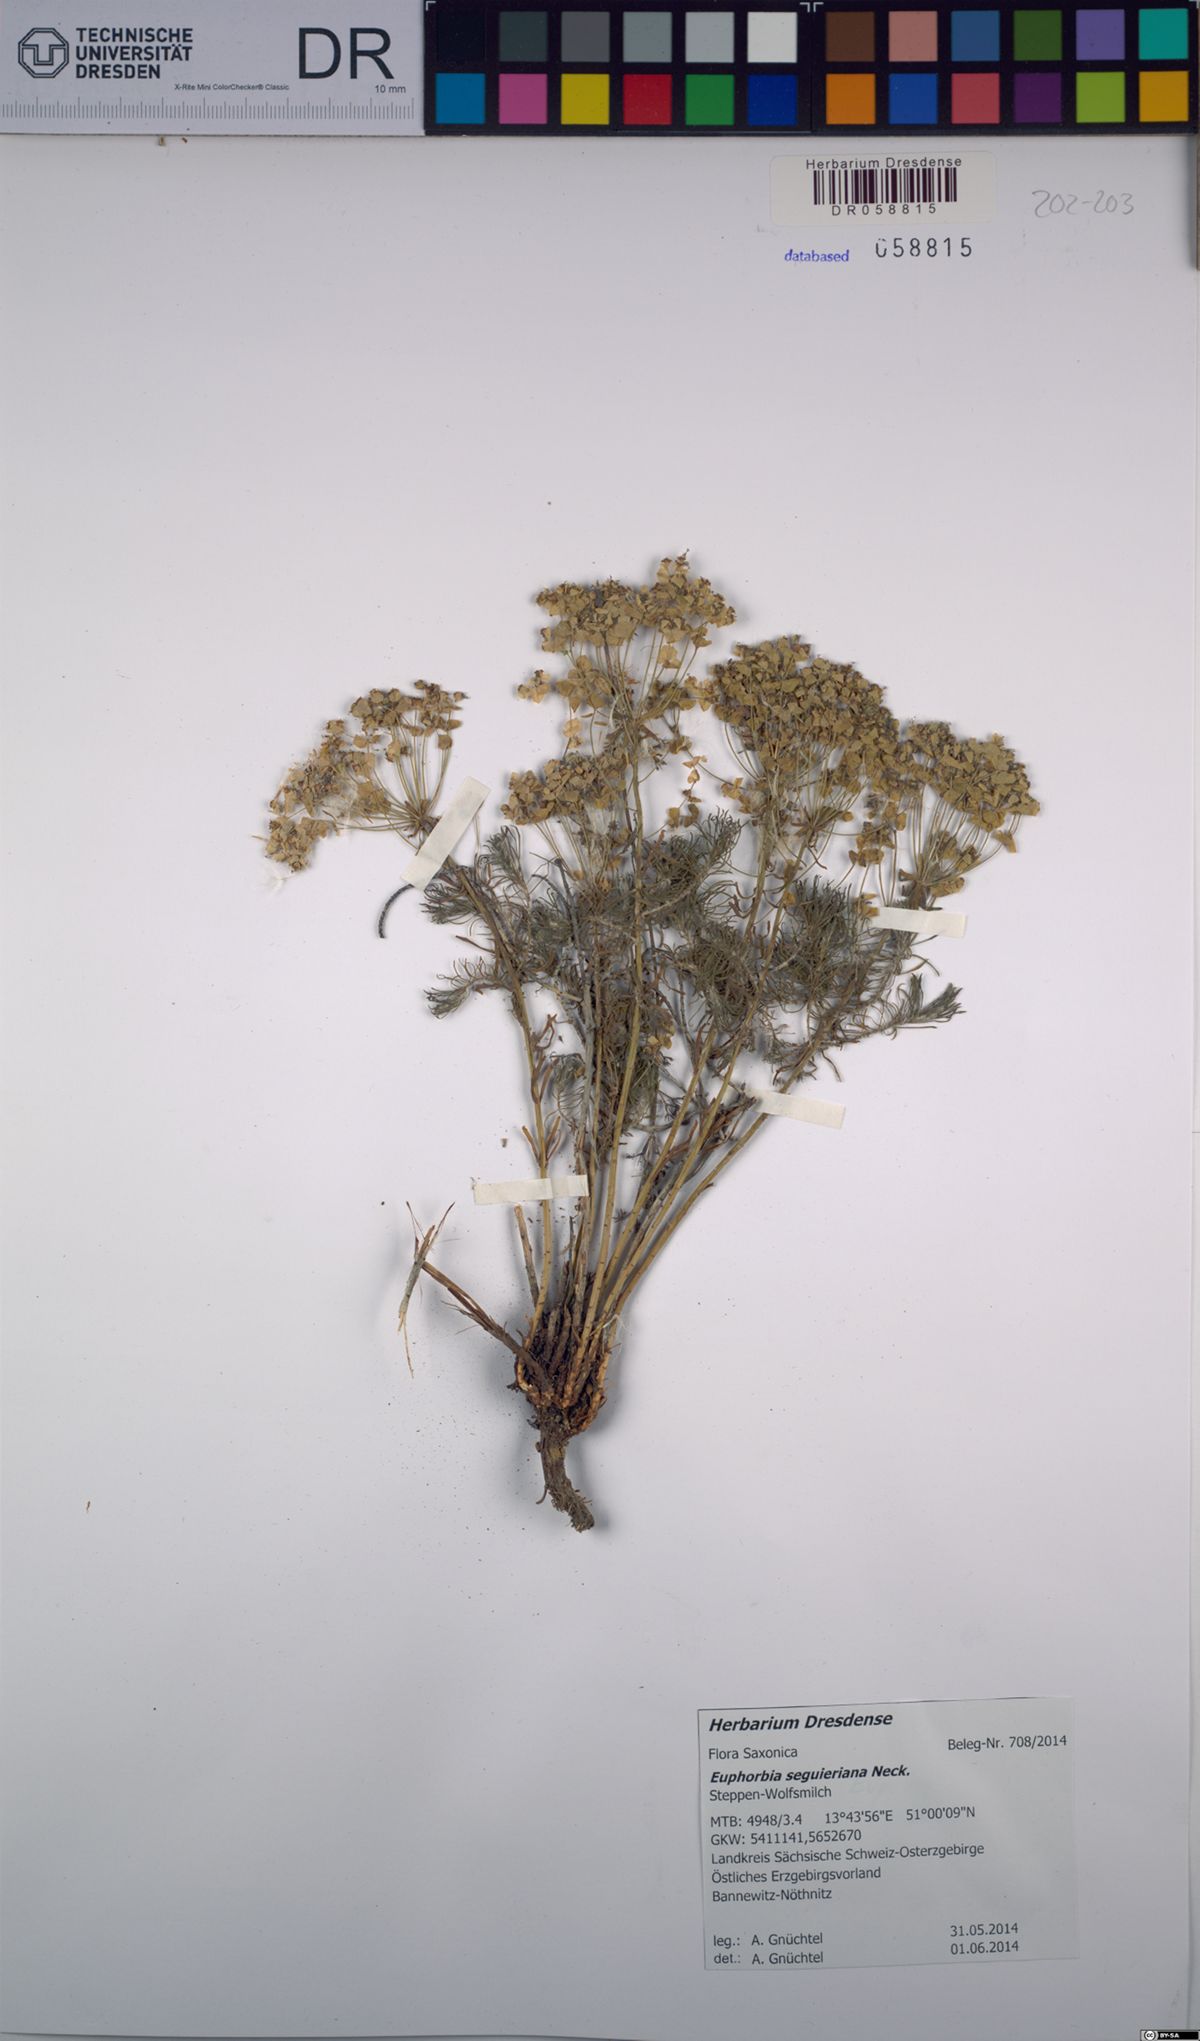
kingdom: Plantae
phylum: Tracheophyta
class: Magnoliopsida
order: Malpighiales
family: Euphorbiaceae
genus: Euphorbia
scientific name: Euphorbia seguieriana
